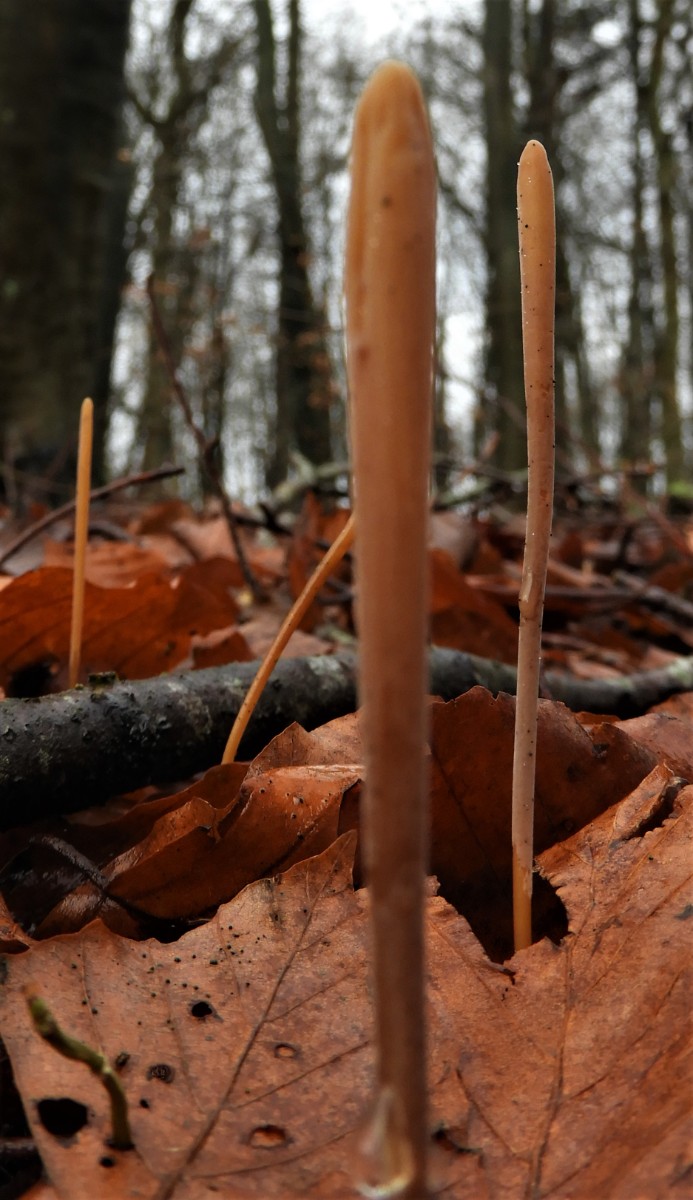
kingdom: Fungi
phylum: Basidiomycota
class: Agaricomycetes
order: Agaricales
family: Typhulaceae
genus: Typhula
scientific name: Typhula fistulosa
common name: pibet rørkølle
